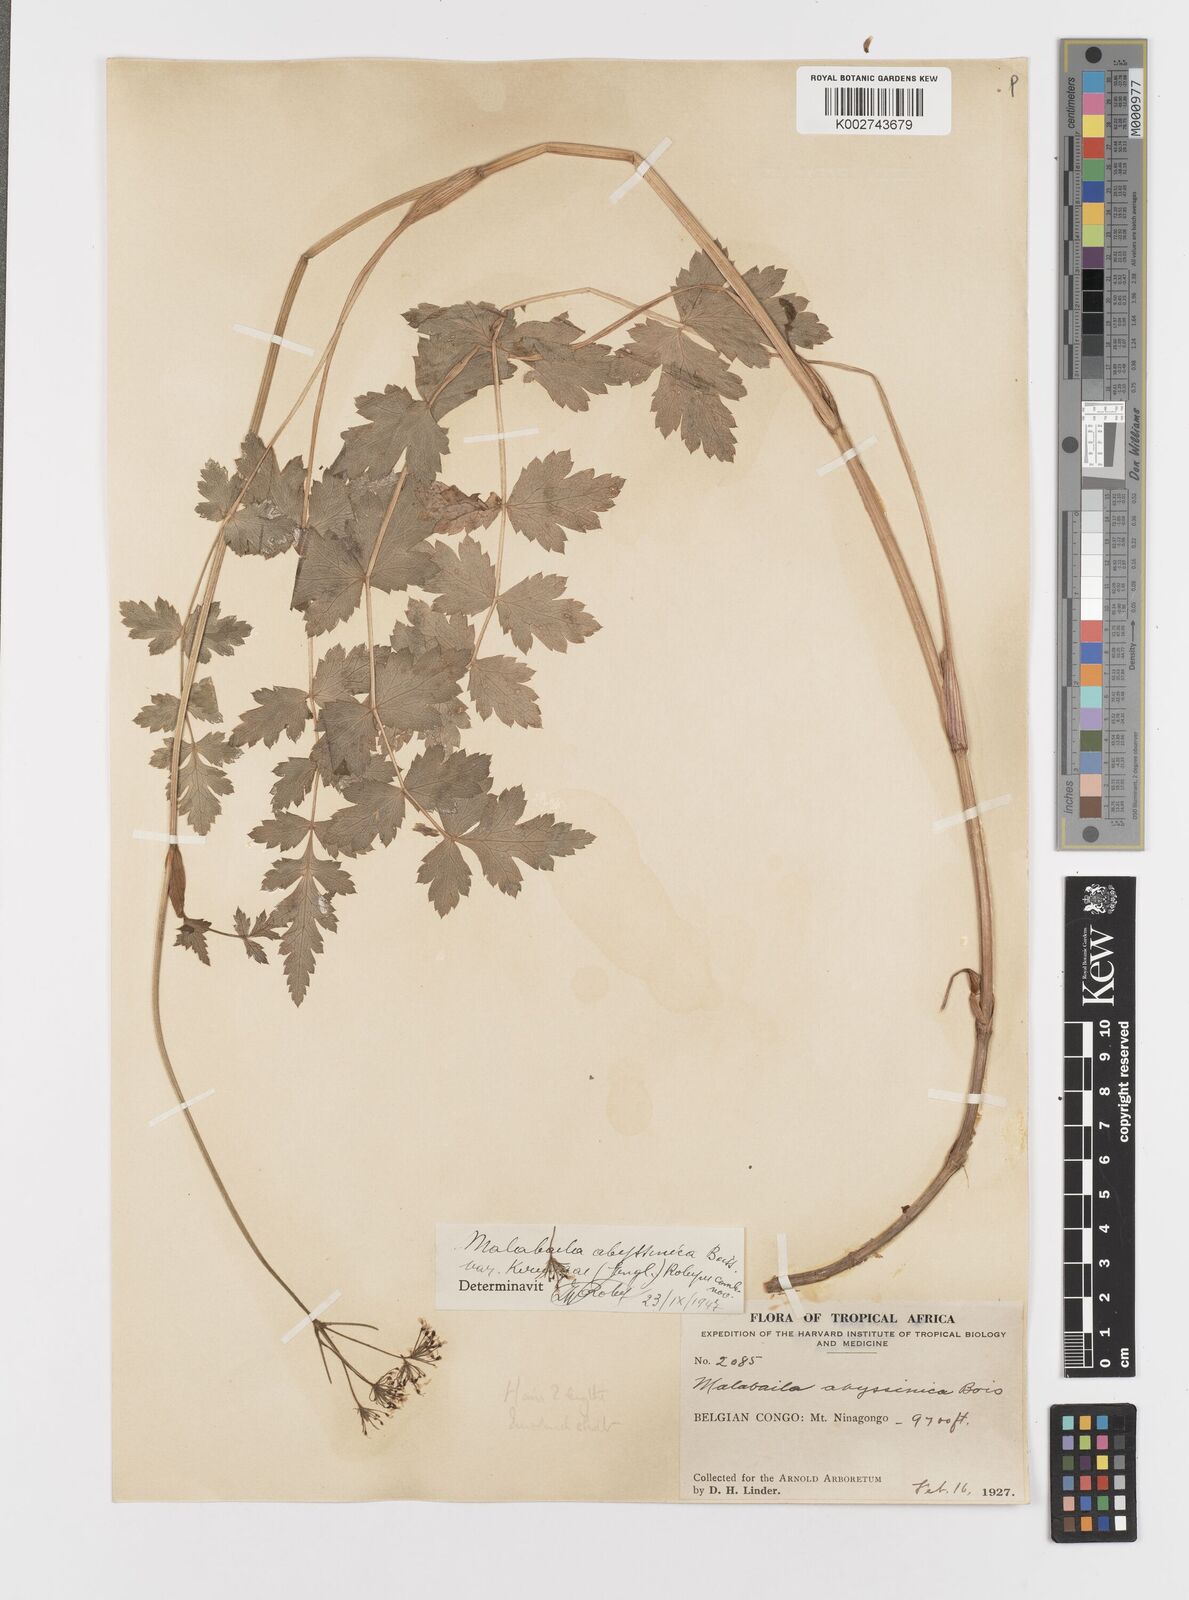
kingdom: Plantae
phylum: Tracheophyta
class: Magnoliopsida
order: Apiales
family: Apiaceae
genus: Heracleum
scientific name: Heracleum abyssinicum
